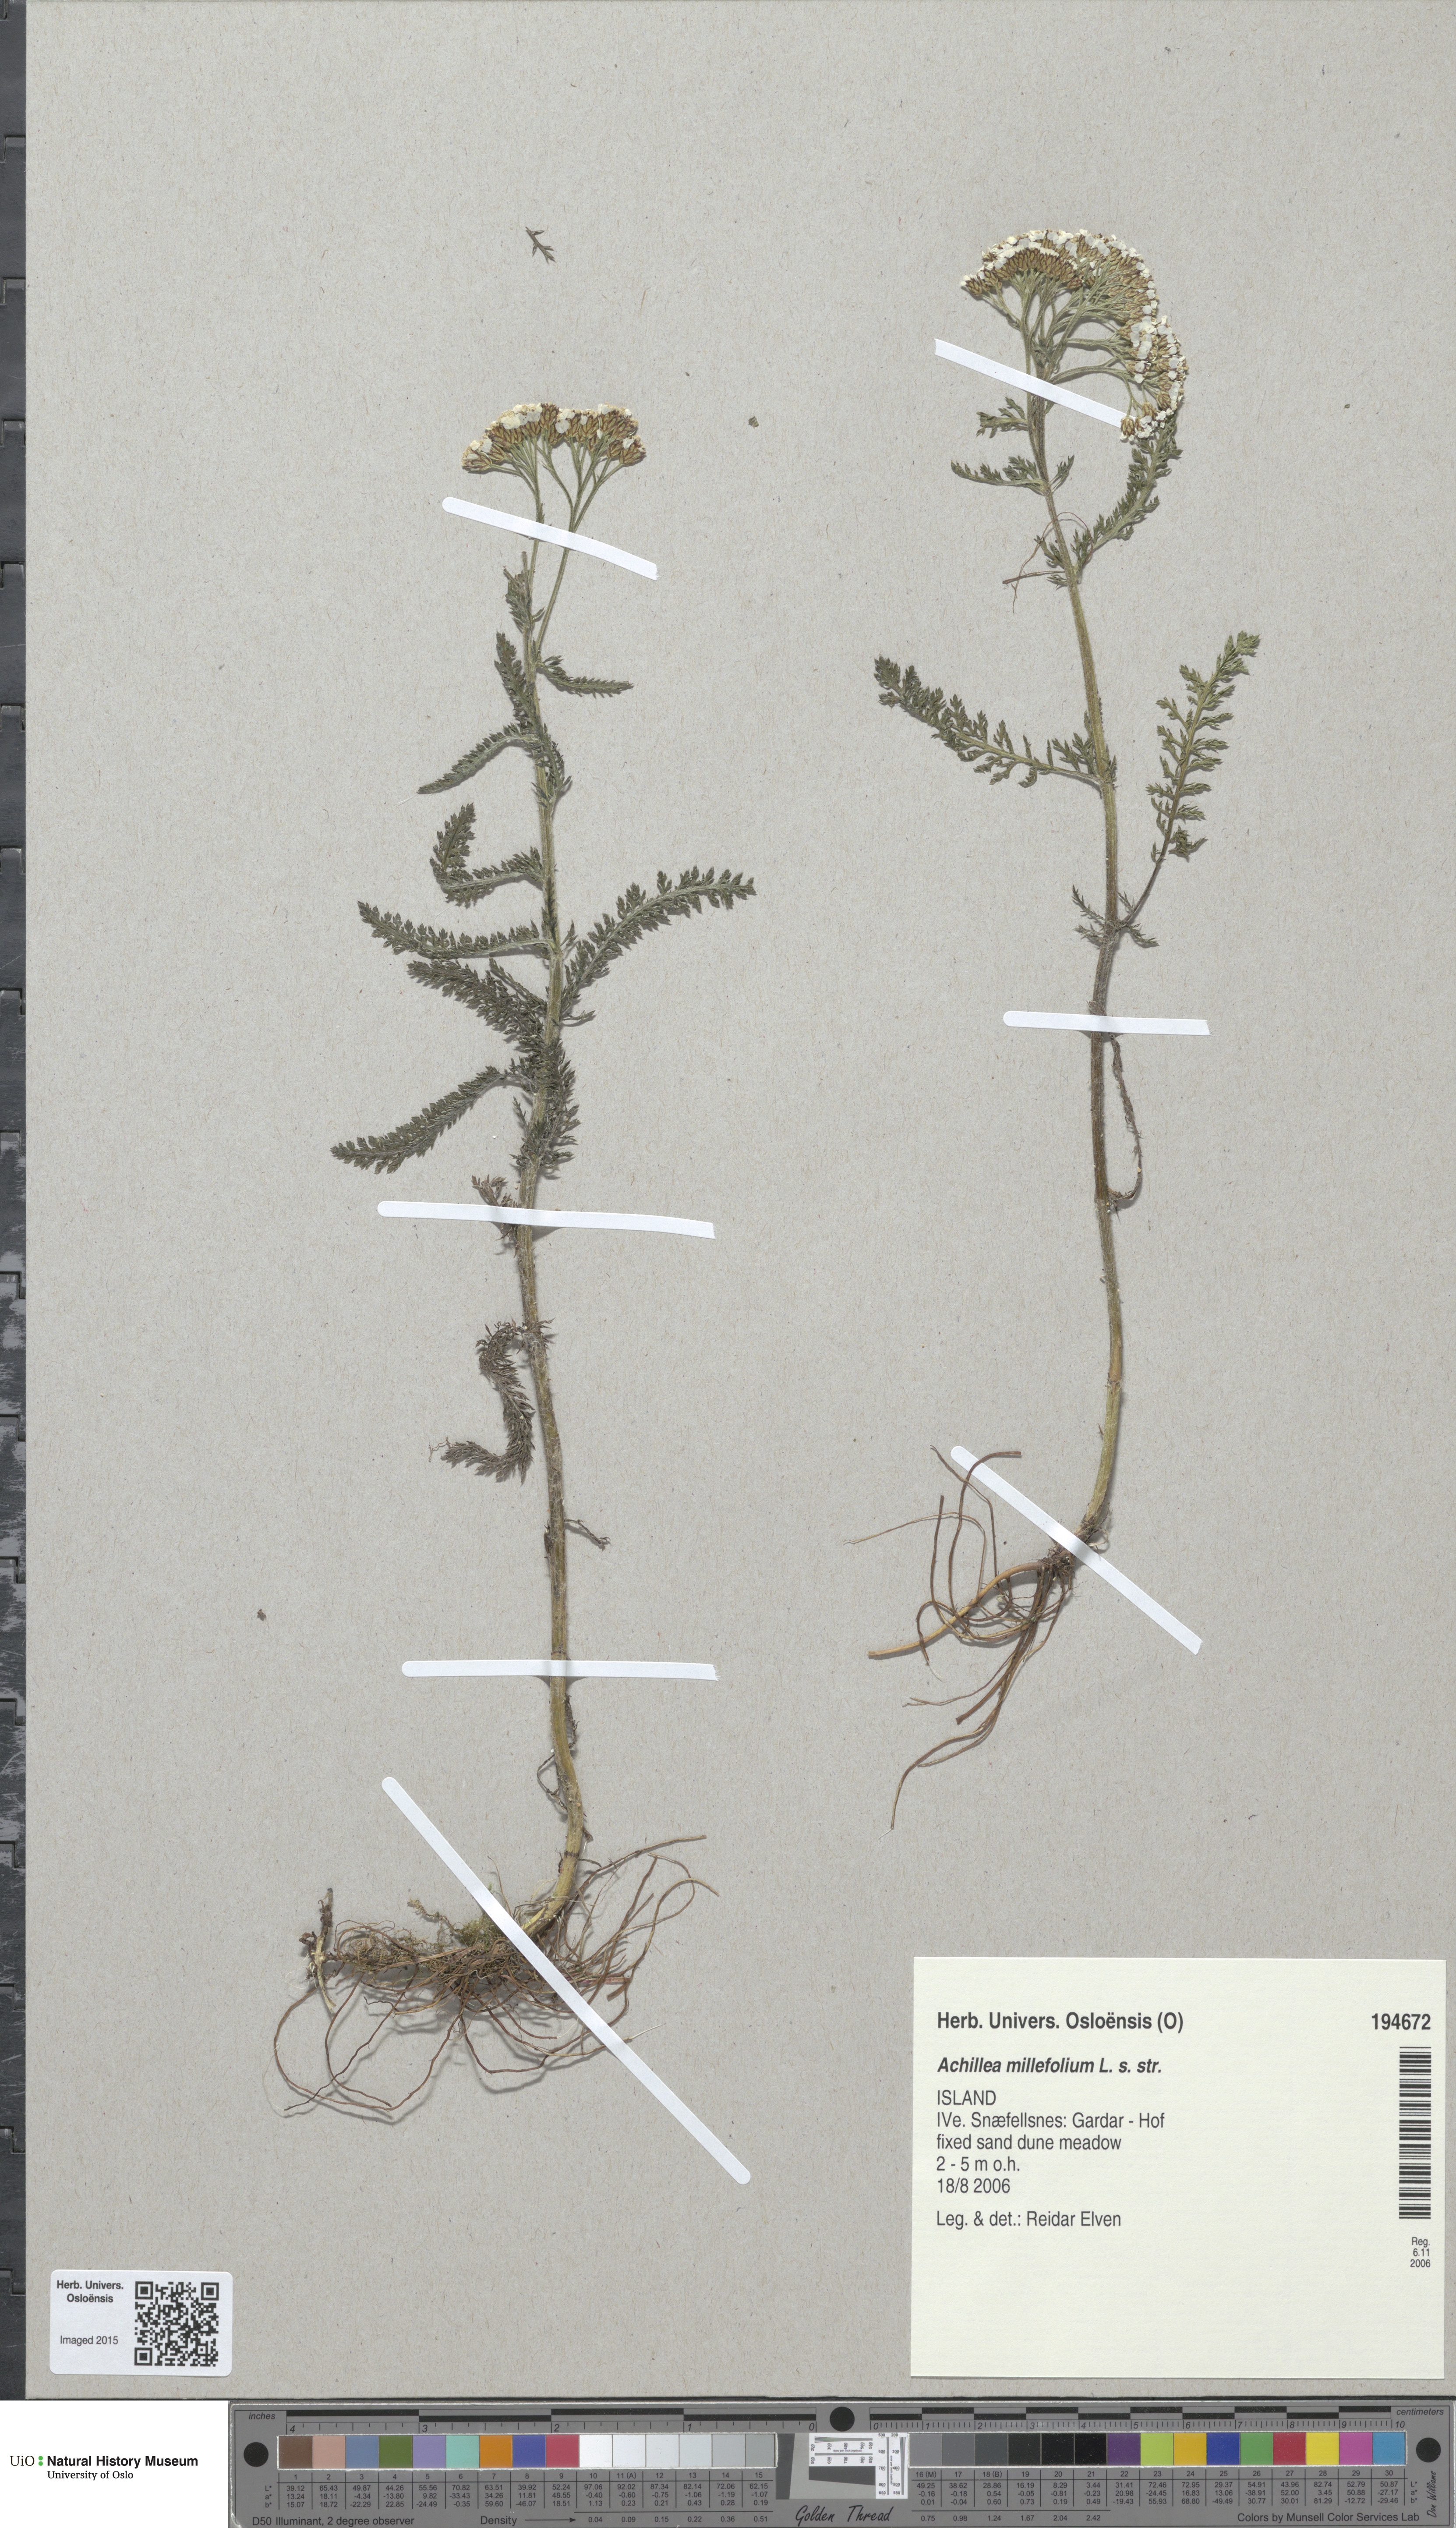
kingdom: Plantae
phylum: Tracheophyta
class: Magnoliopsida
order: Asterales
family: Asteraceae
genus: Achillea
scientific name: Achillea millefolium
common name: Yarrow
